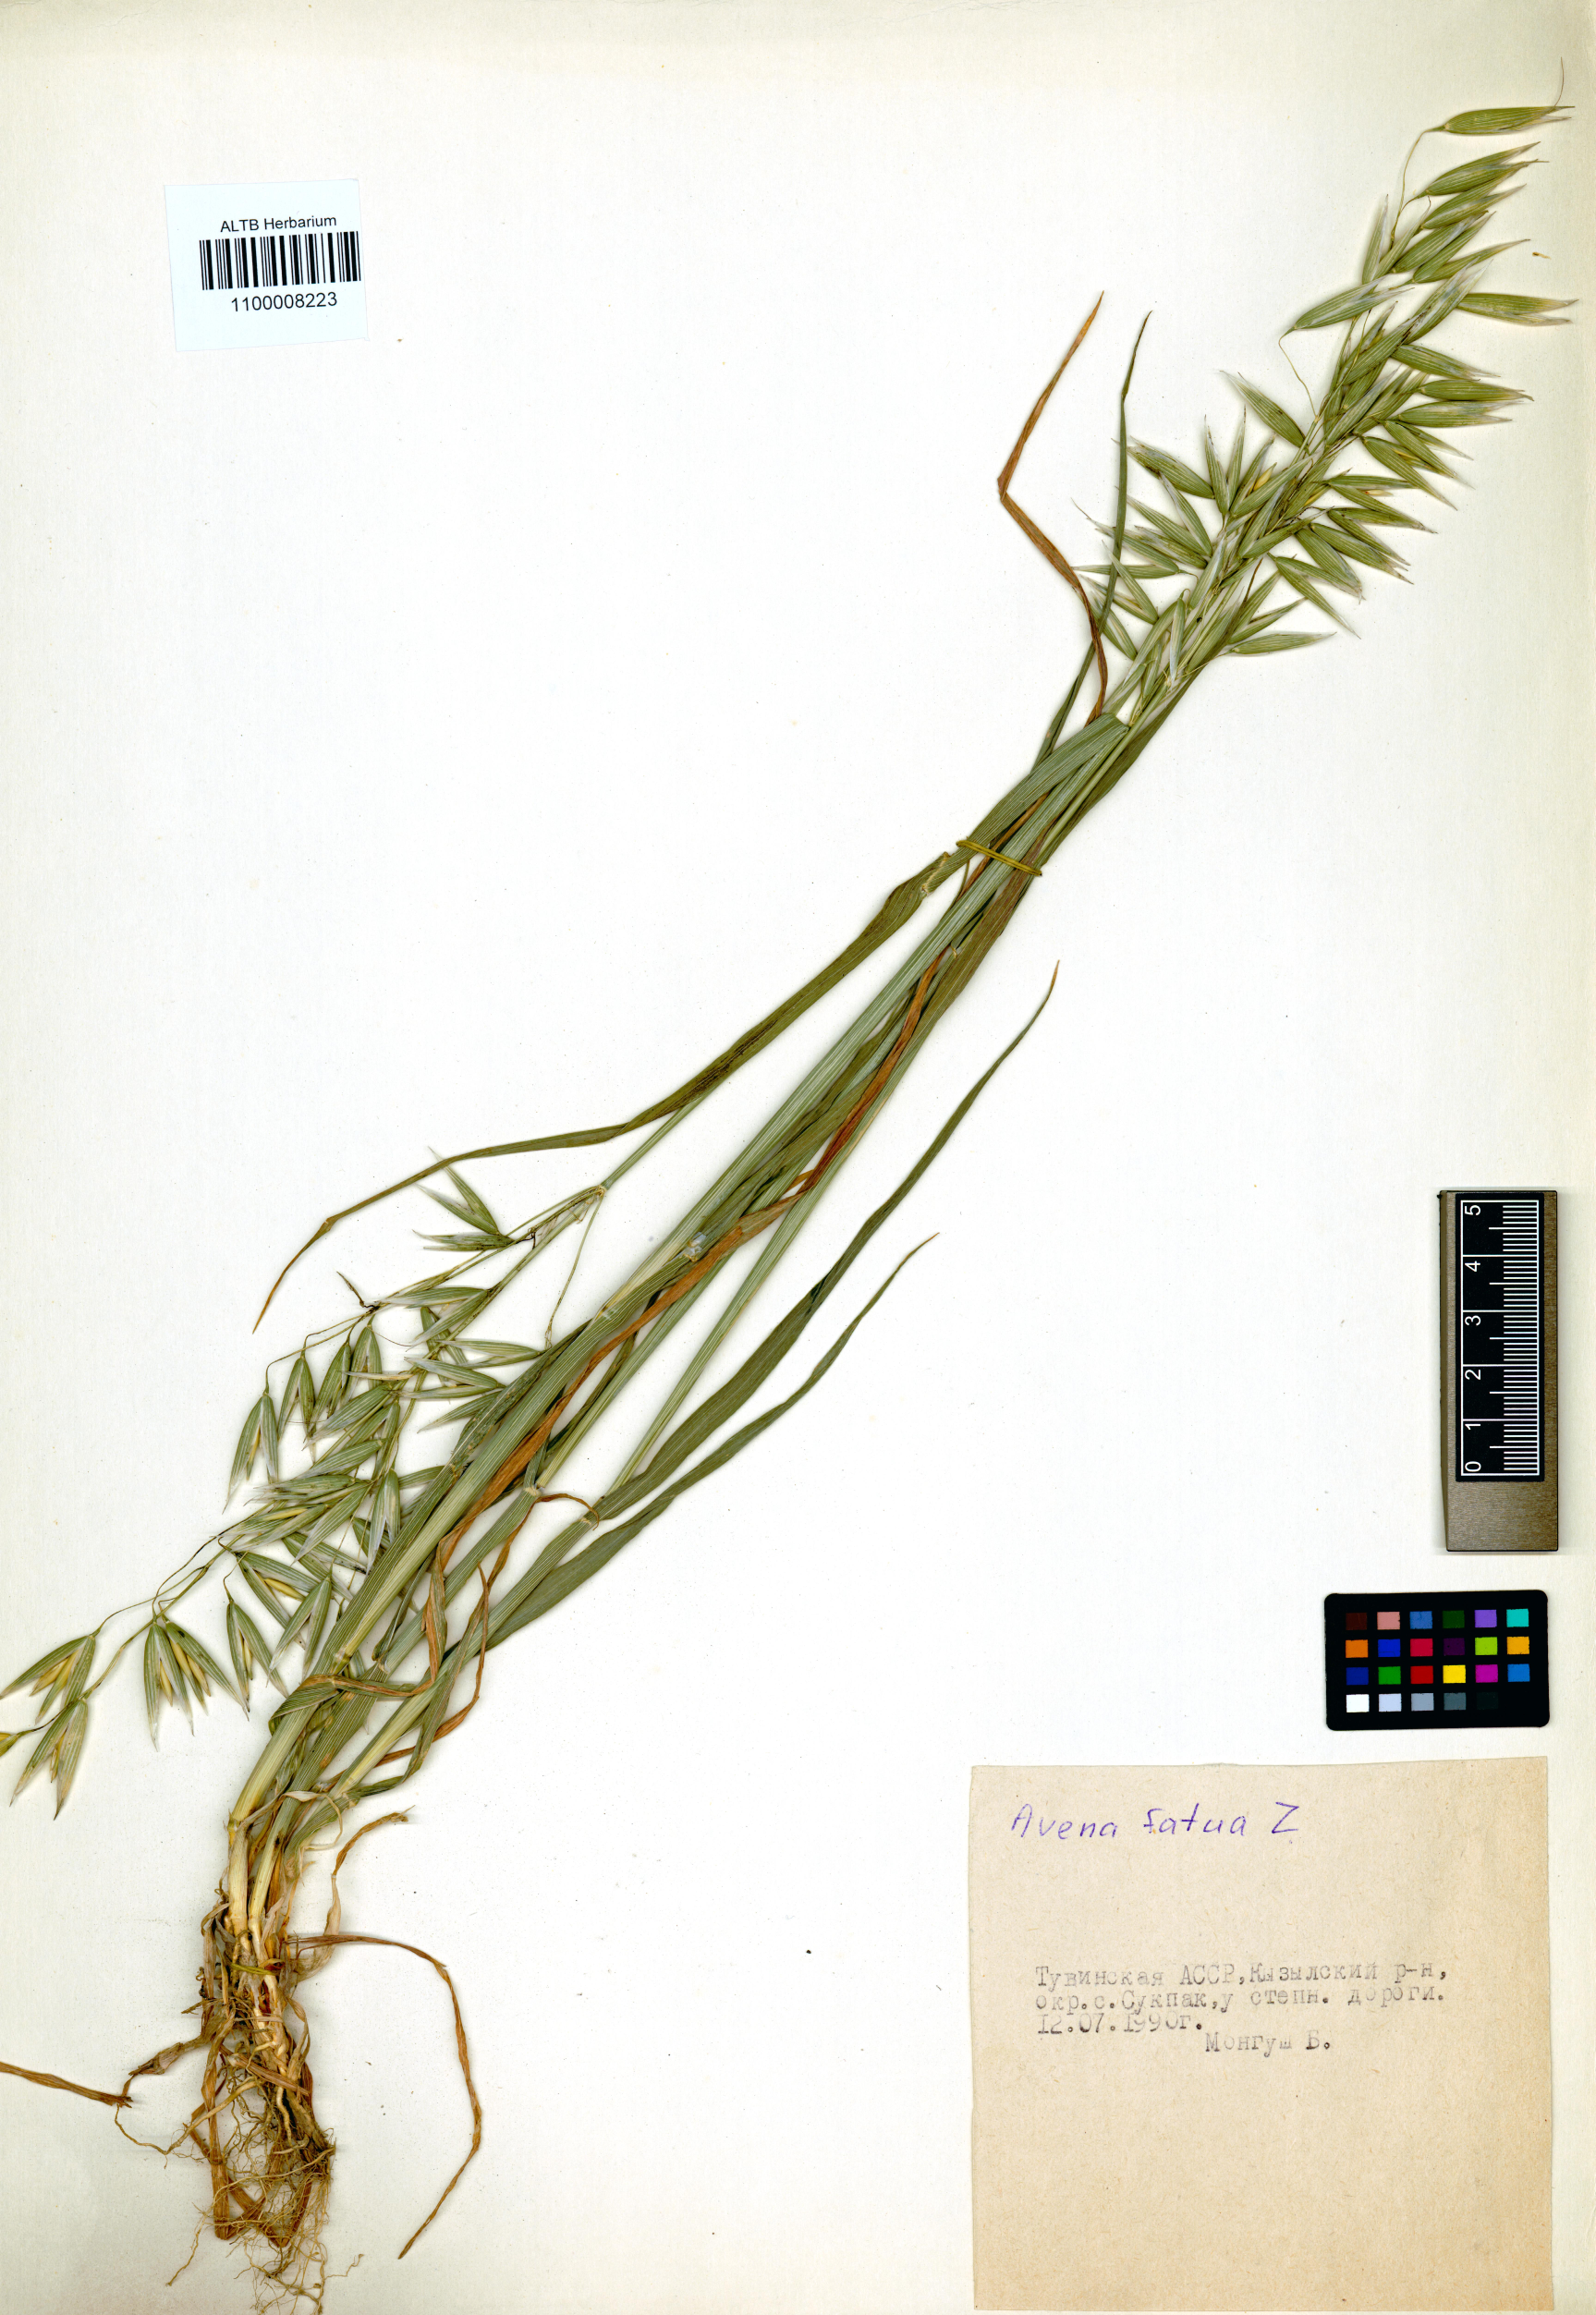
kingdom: Plantae
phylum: Tracheophyta
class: Liliopsida
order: Poales
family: Poaceae
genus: Avena
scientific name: Avena fatua
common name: Wild oat
